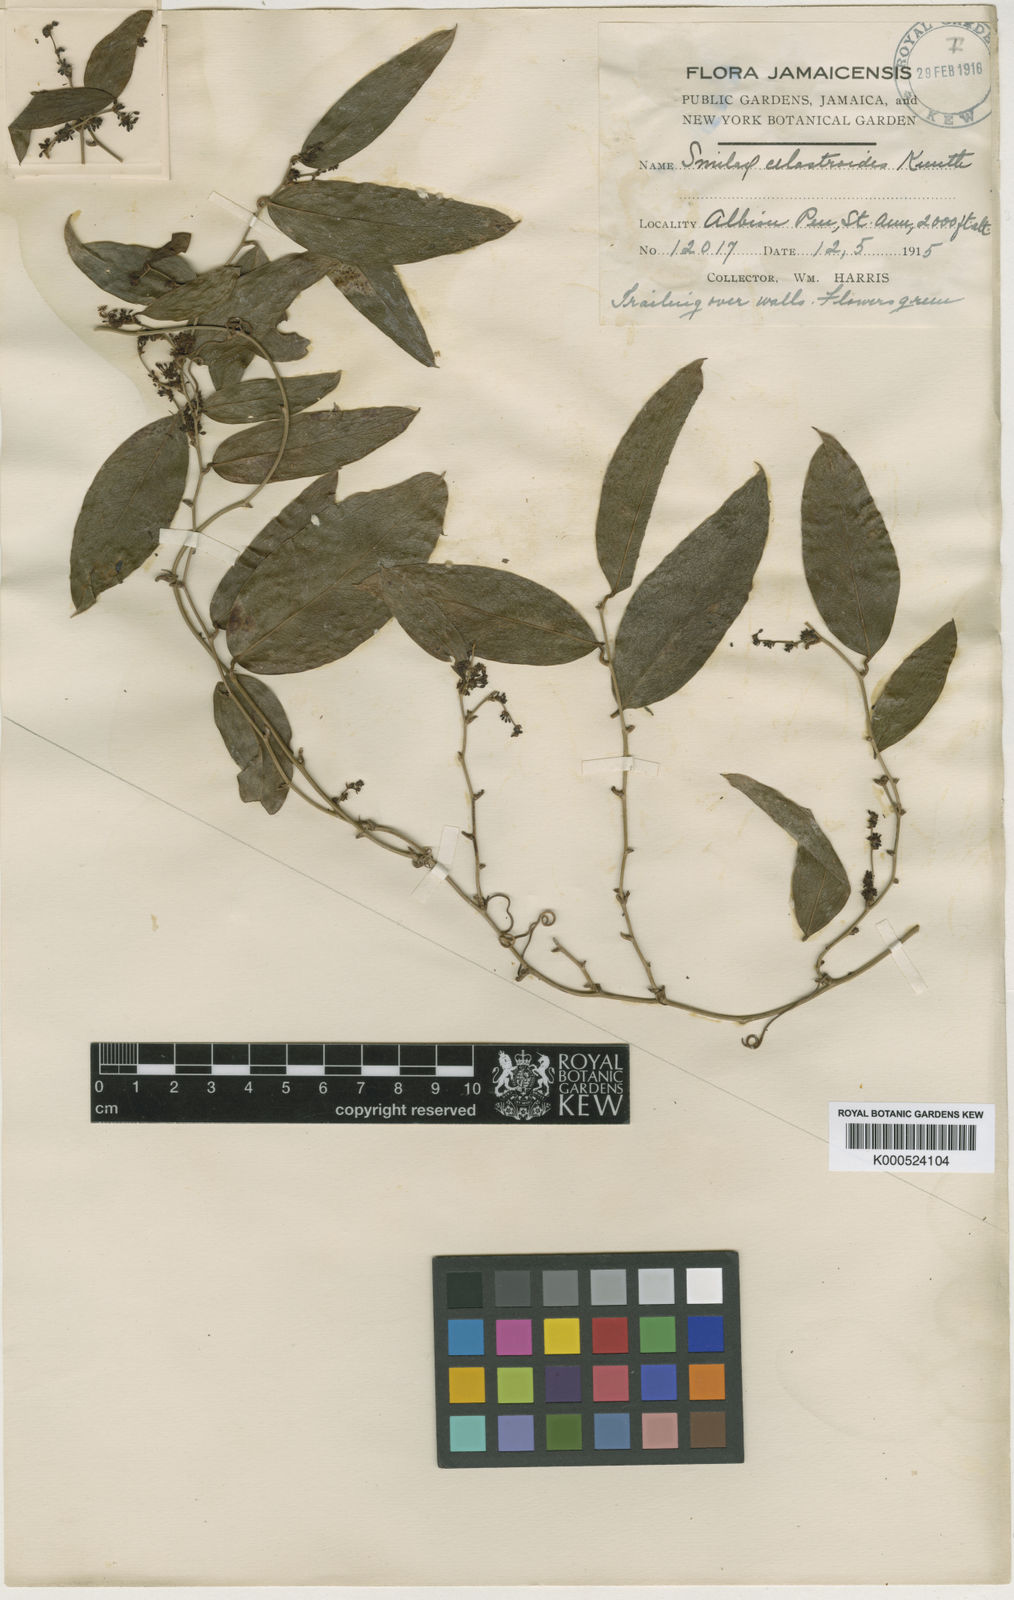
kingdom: Plantae
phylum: Tracheophyta
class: Liliopsida
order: Liliales
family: Smilacaceae
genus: Smilax
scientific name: Smilax domingensis
